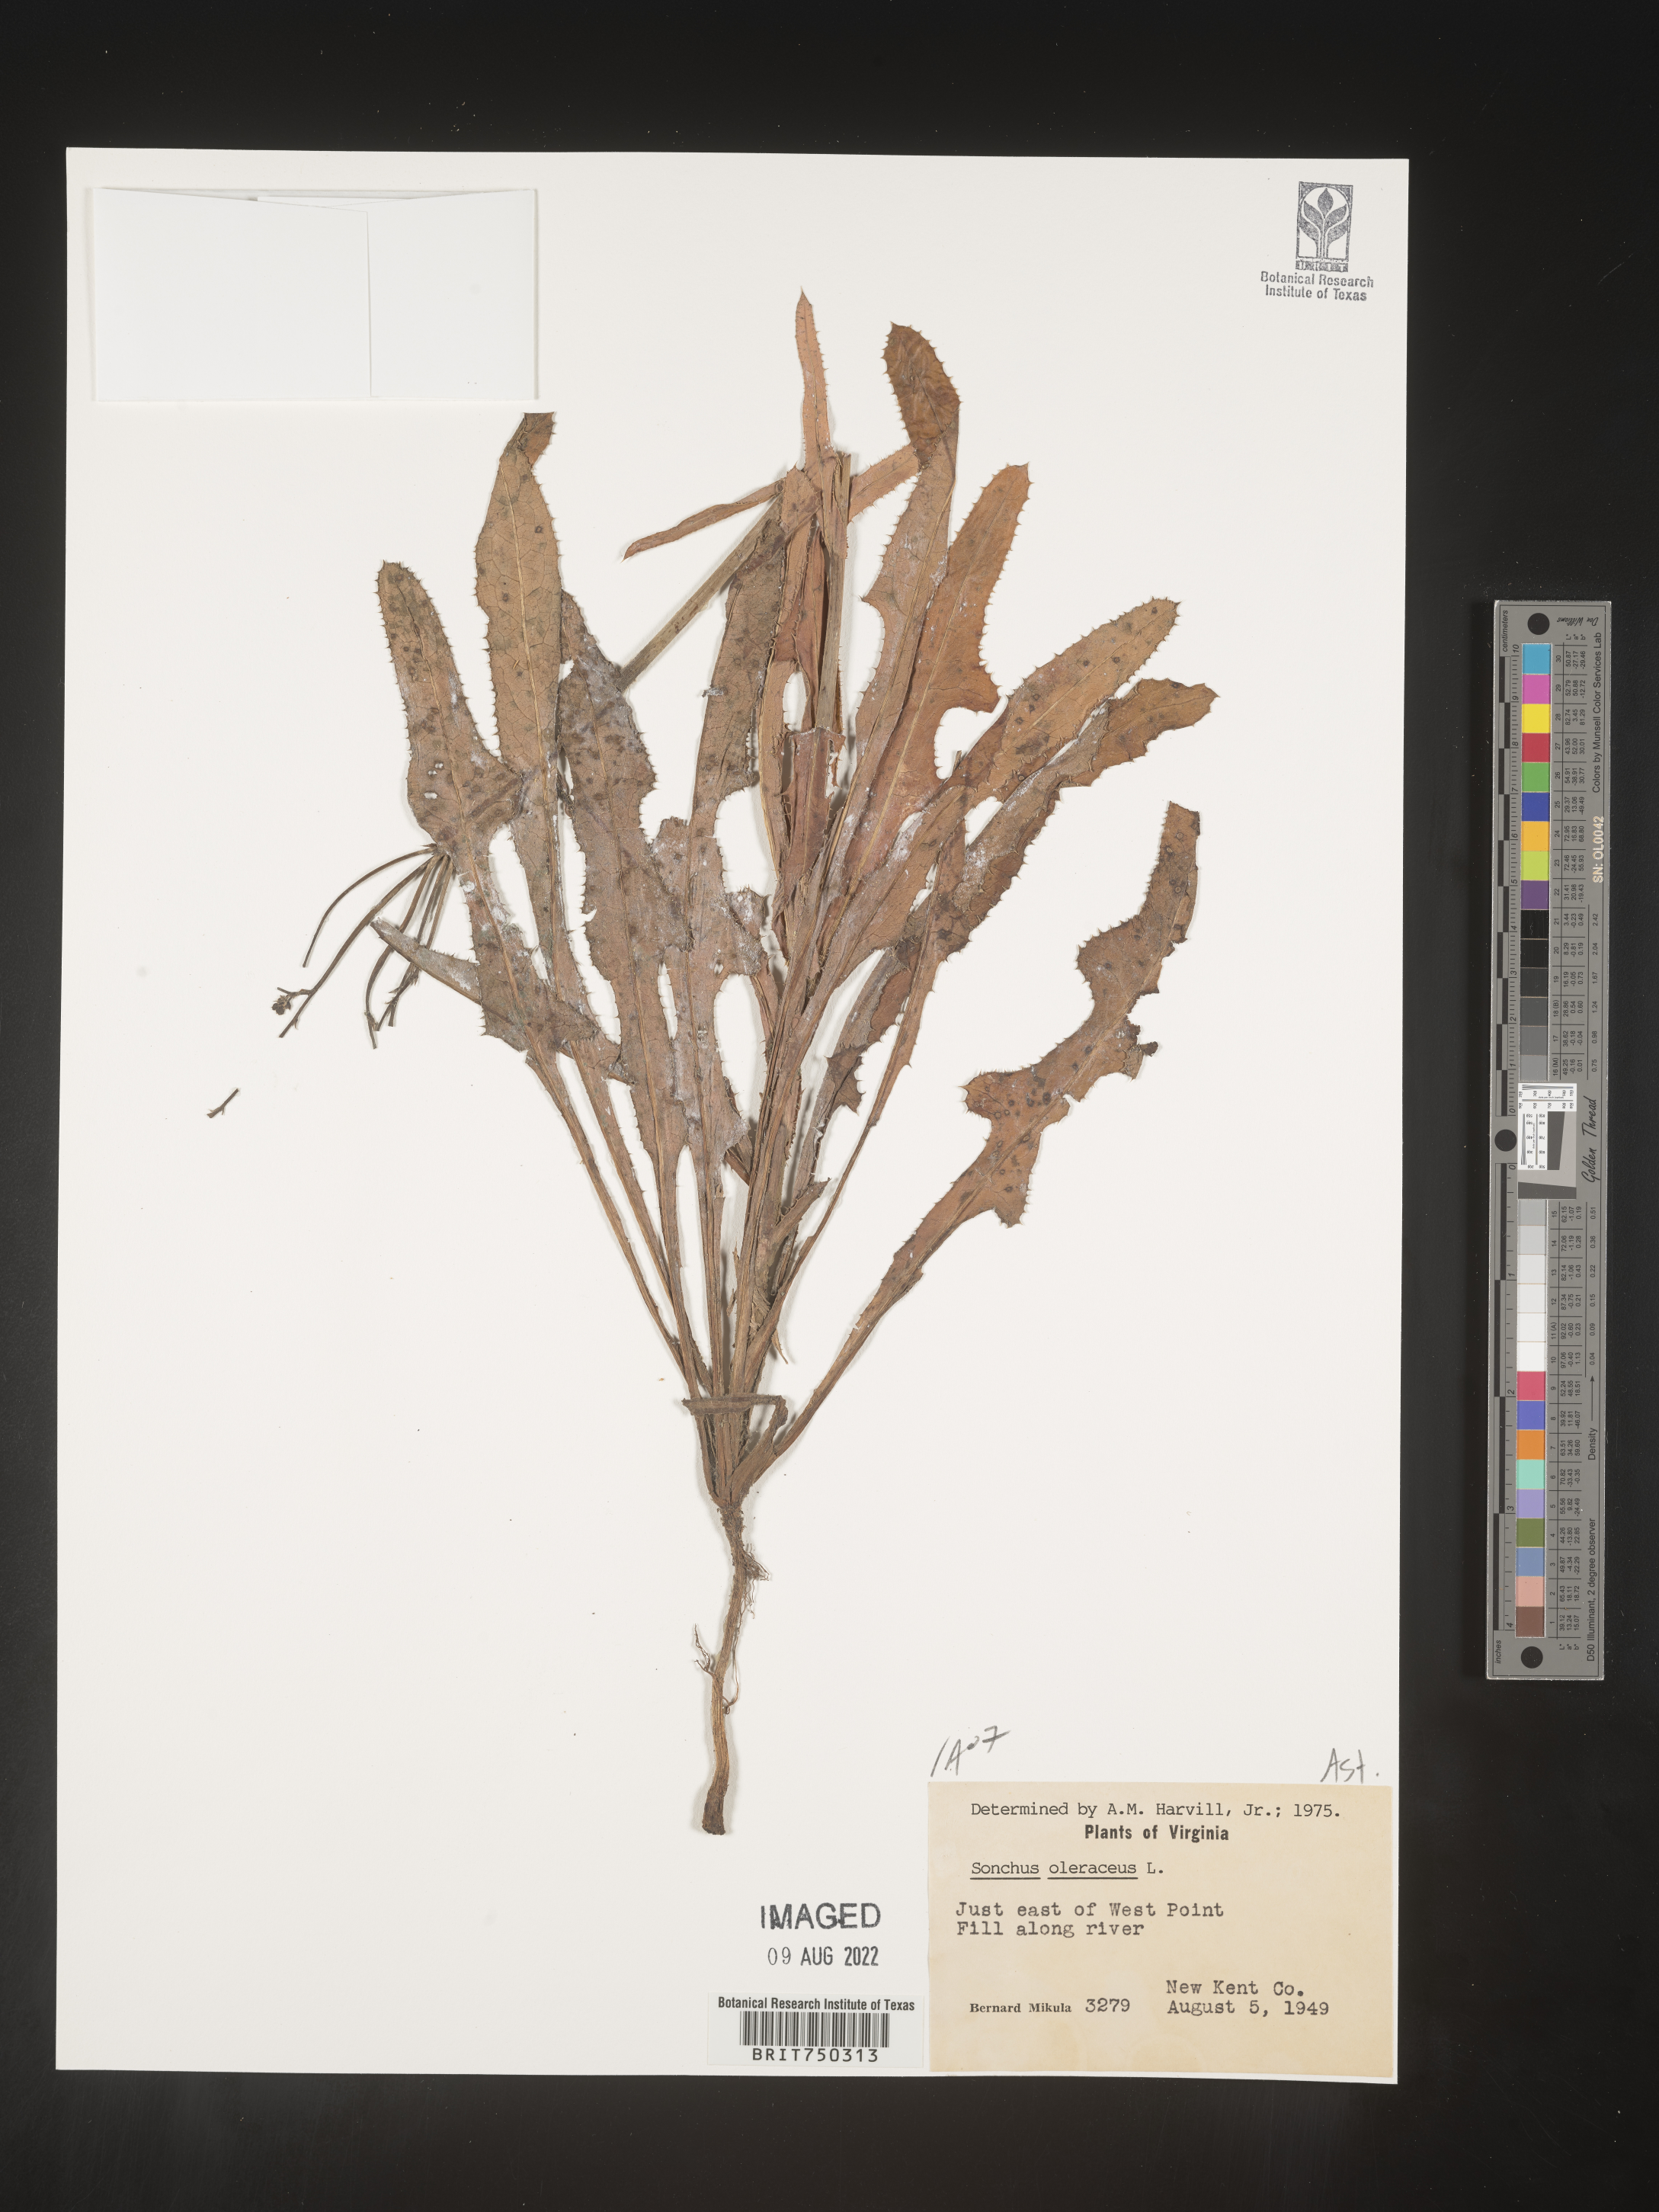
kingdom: Plantae
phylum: Tracheophyta
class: Magnoliopsida
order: Asterales
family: Asteraceae
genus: Sonchus
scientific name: Sonchus oleraceus
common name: Common sowthistle
